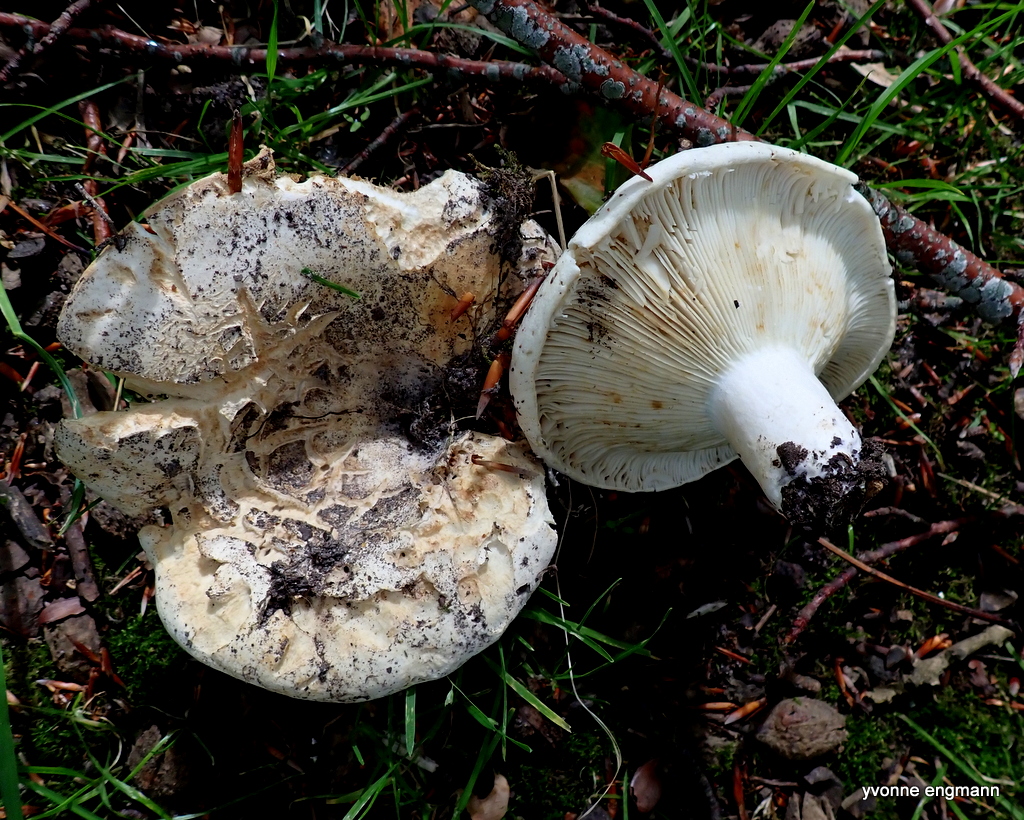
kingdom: Fungi
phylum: Basidiomycota
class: Agaricomycetes
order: Russulales
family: Russulaceae
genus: Russula
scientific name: Russula delica
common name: almindelig tragt-skørhat
